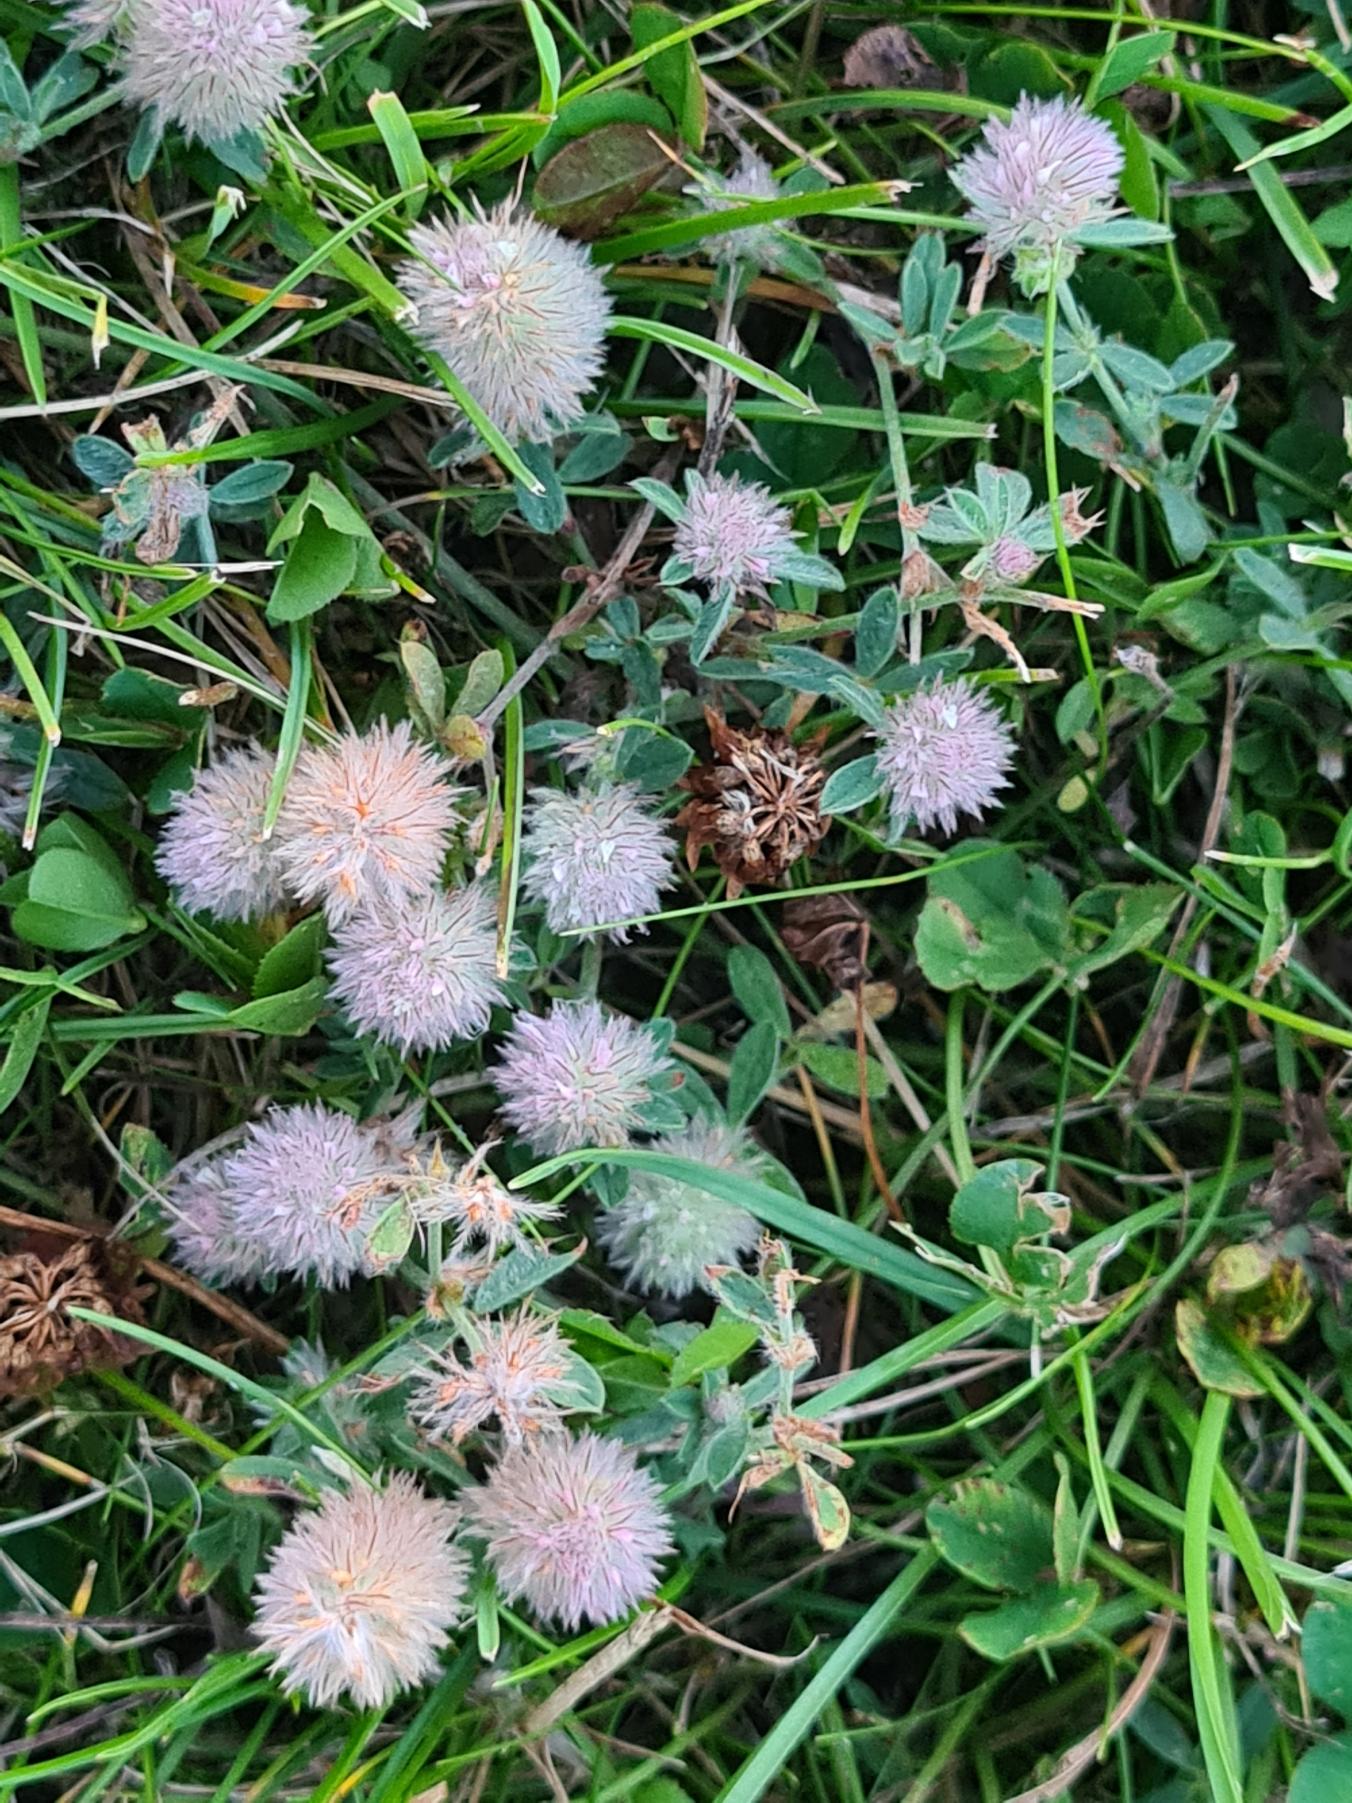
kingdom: Plantae
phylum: Tracheophyta
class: Magnoliopsida
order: Fabales
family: Fabaceae
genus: Trifolium
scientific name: Trifolium arvense
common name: Hare-kløver
